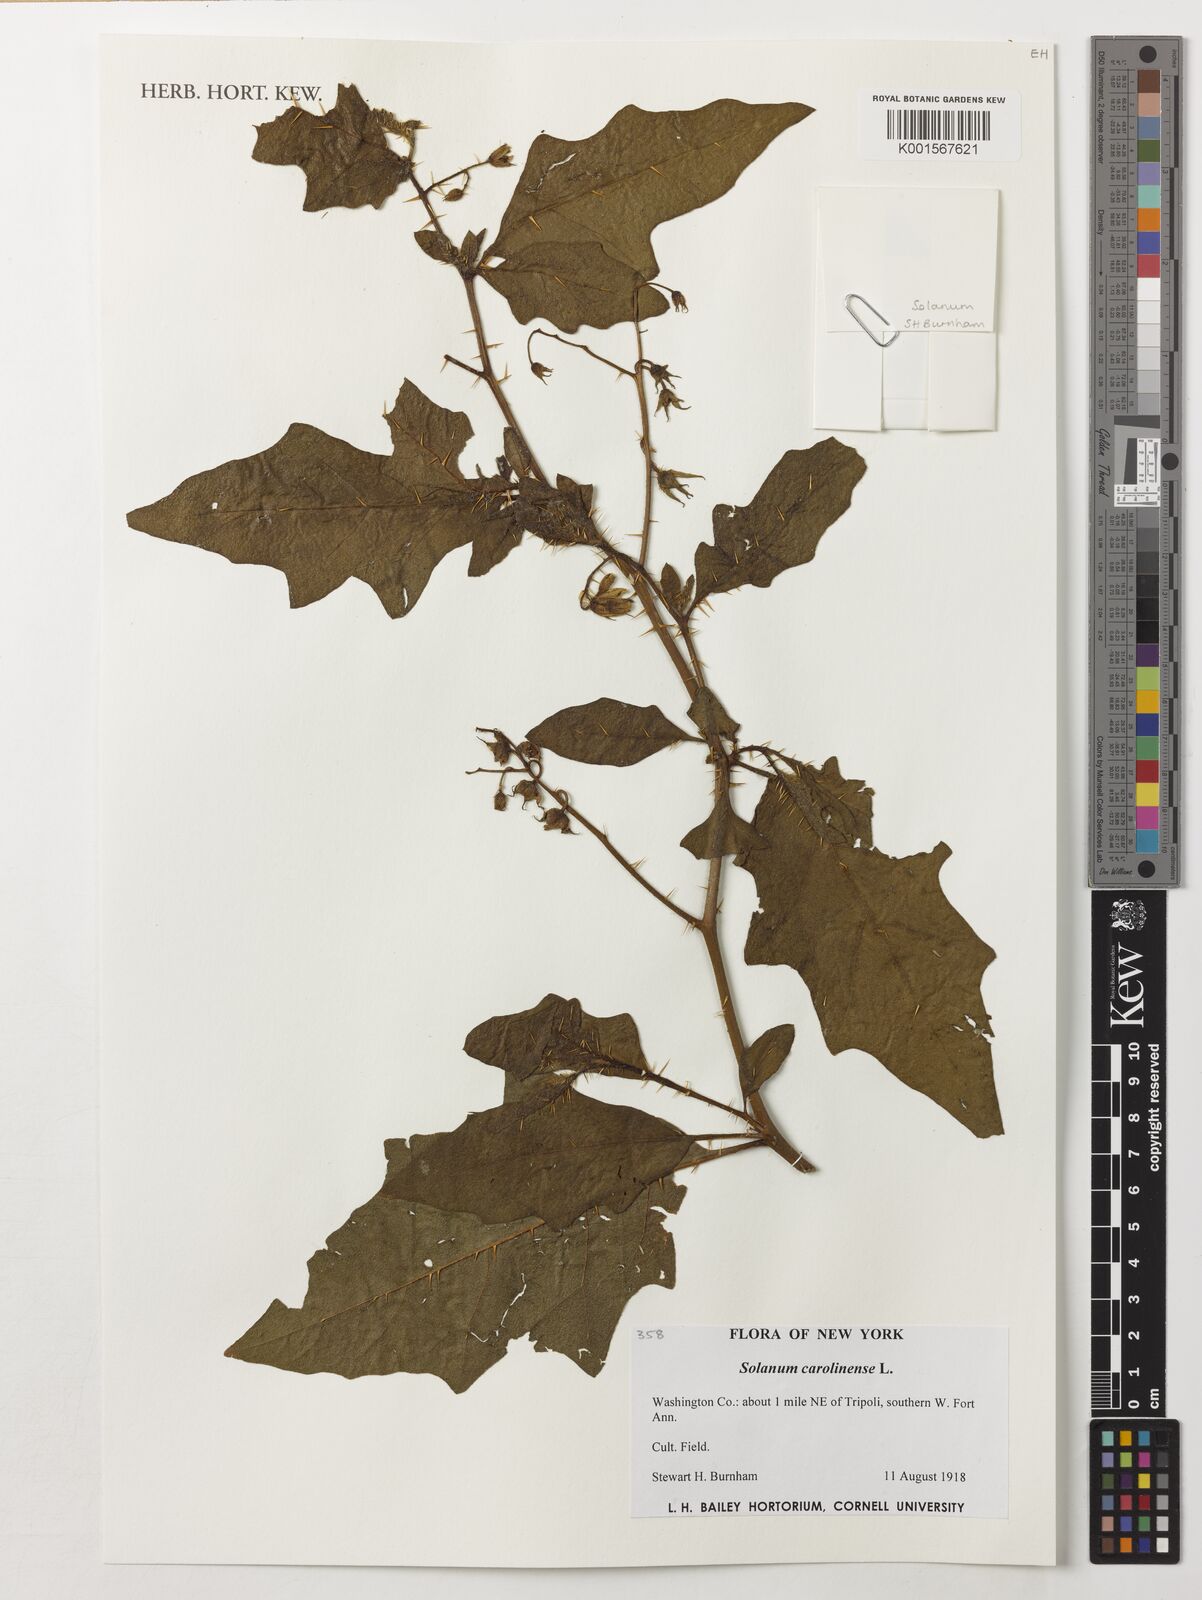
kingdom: Plantae
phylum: Tracheophyta
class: Magnoliopsida
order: Solanales
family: Solanaceae
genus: Solanum
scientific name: Solanum carolinense
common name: Horse-nettle
